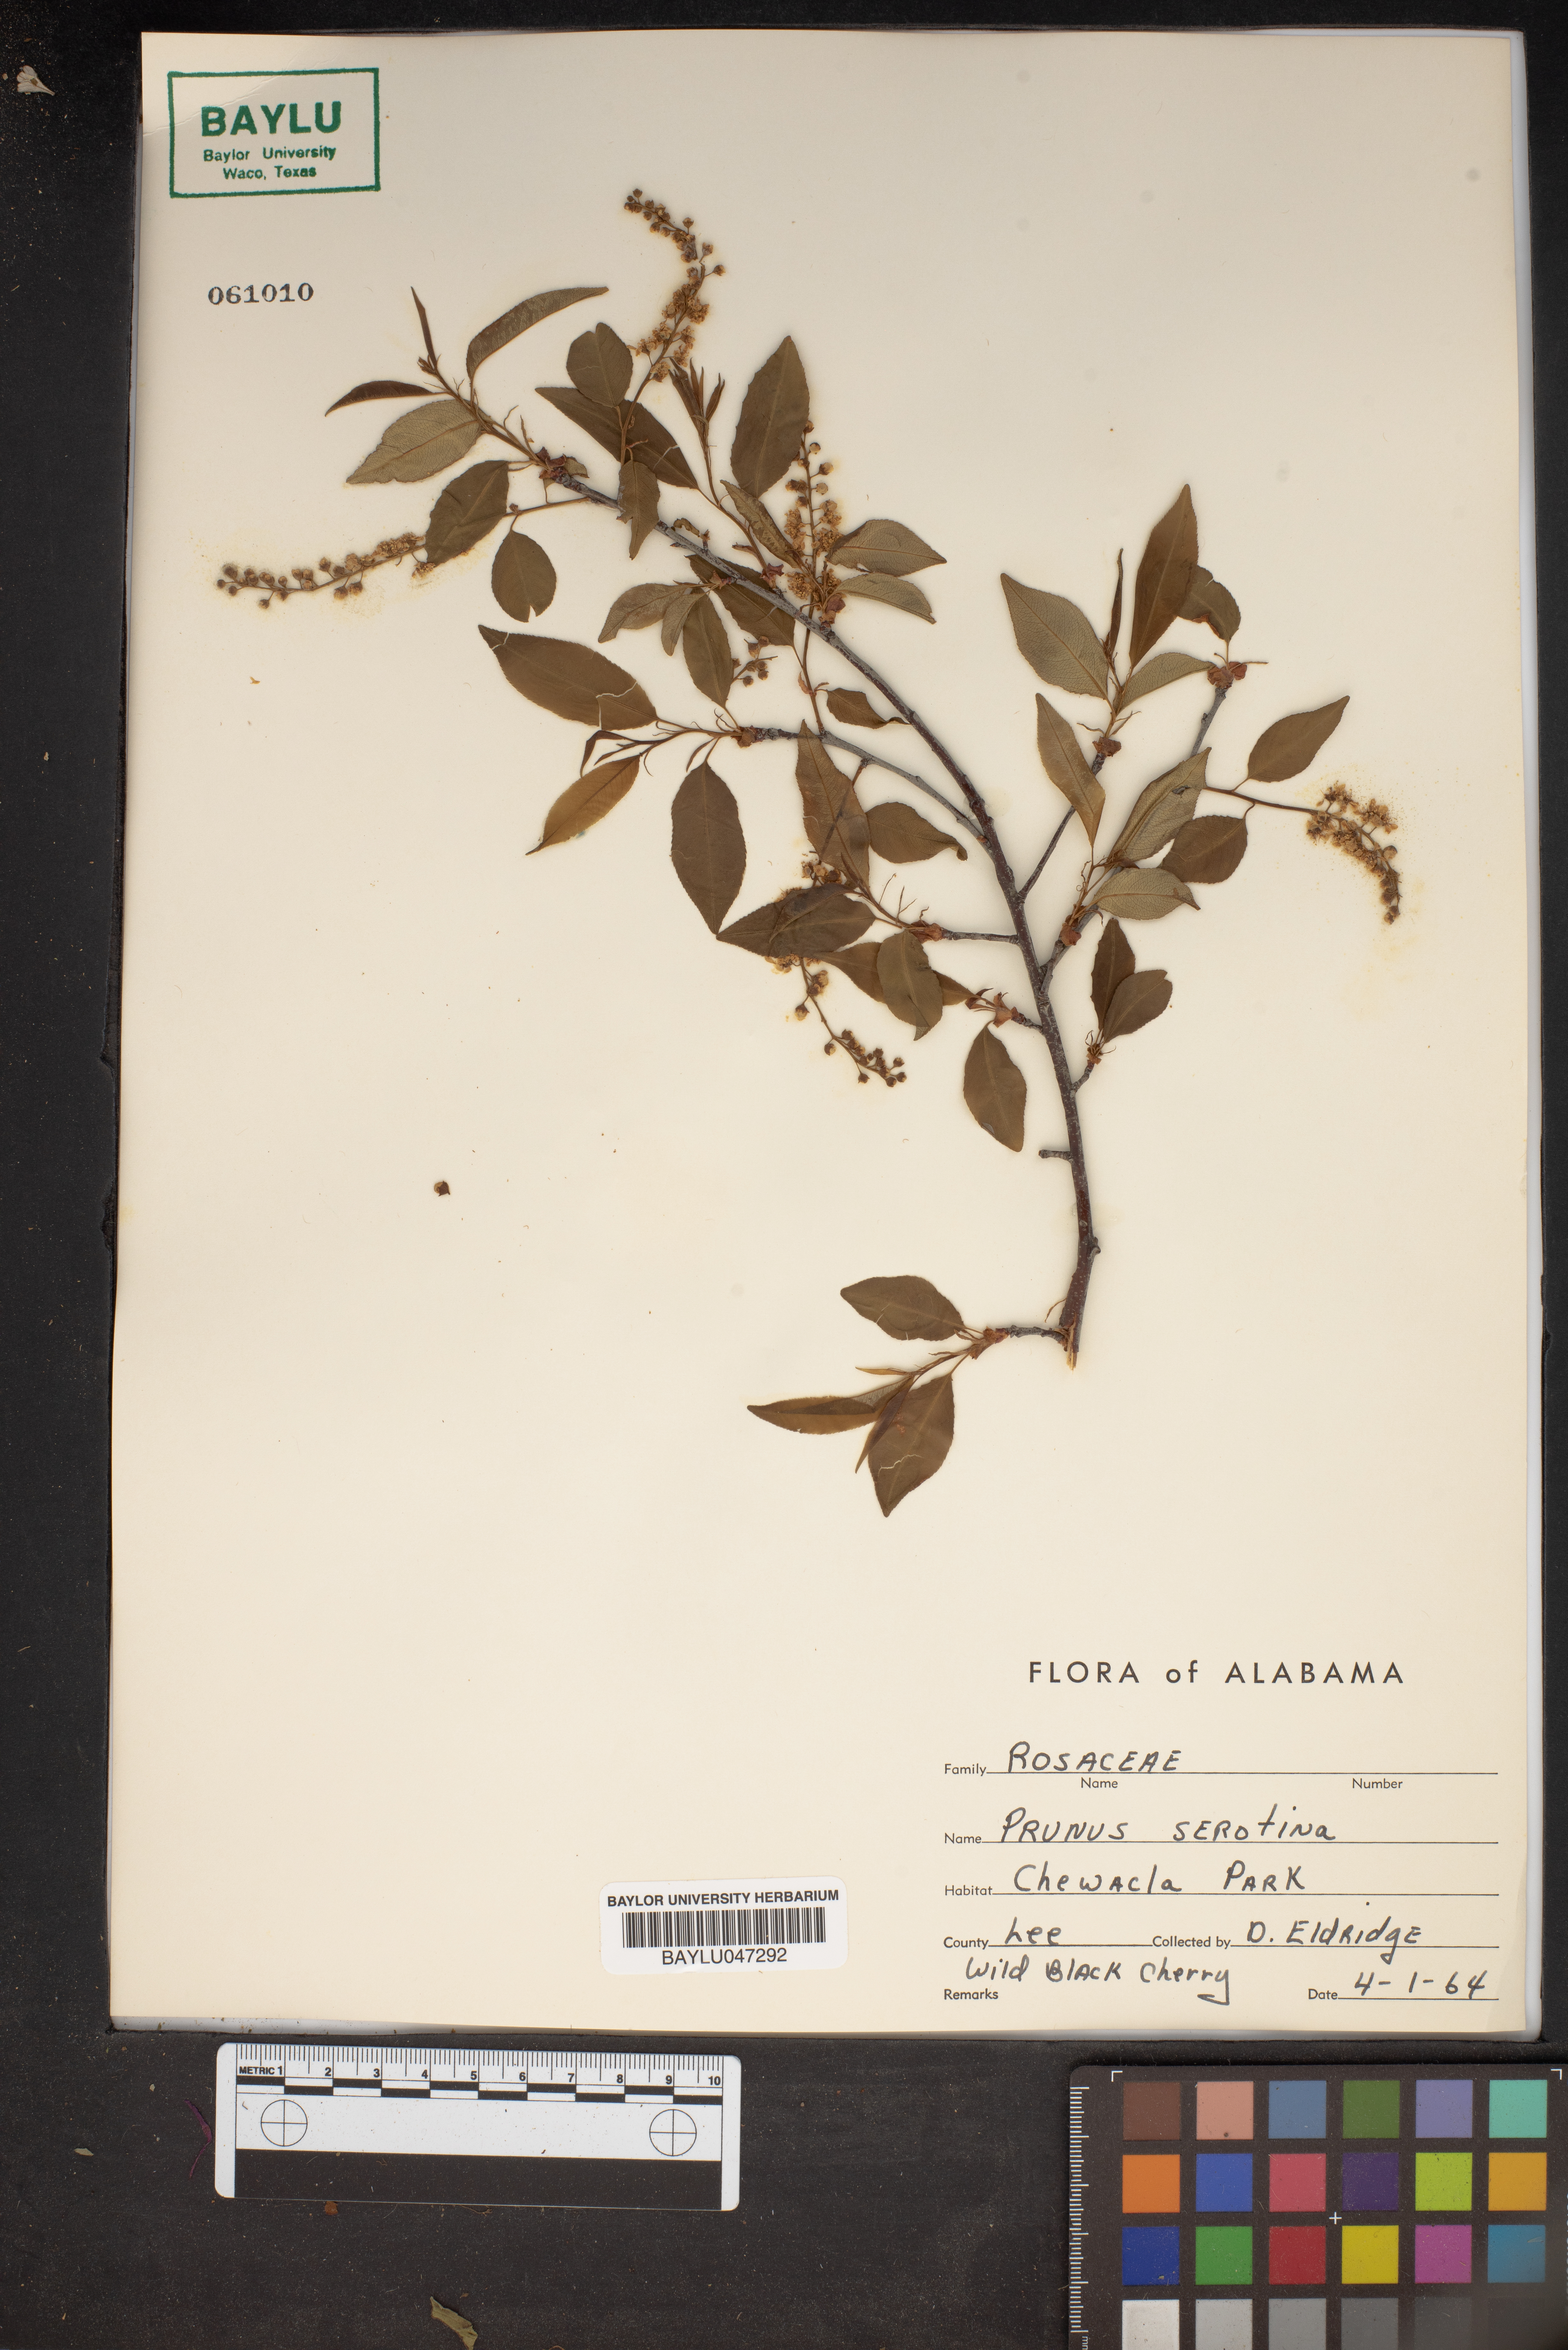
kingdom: Plantae
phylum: Tracheophyta
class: Magnoliopsida
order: Rosales
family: Rosaceae
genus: Prunus
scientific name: Prunus serotina
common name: Black cherry
